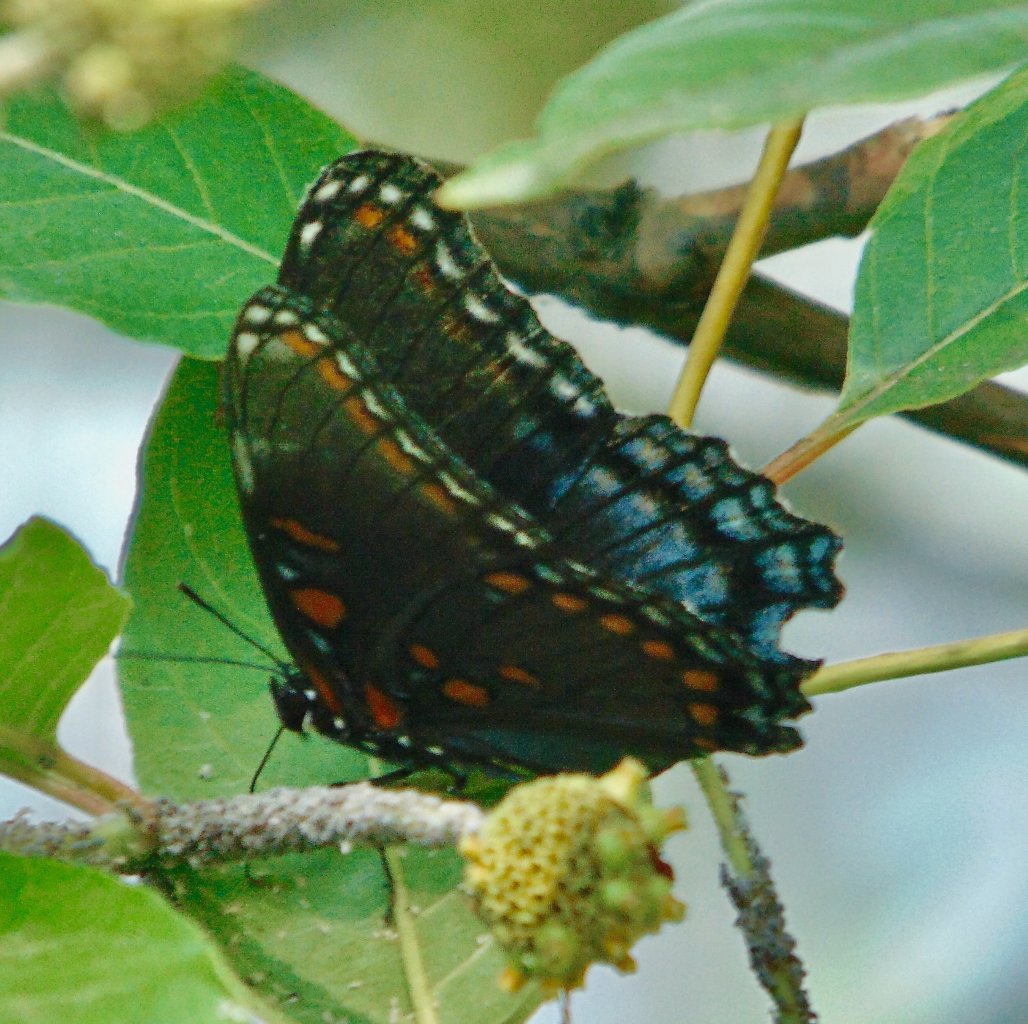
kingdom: Animalia
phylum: Arthropoda
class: Insecta
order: Lepidoptera
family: Nymphalidae
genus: Limenitis
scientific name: Limenitis astyanax
